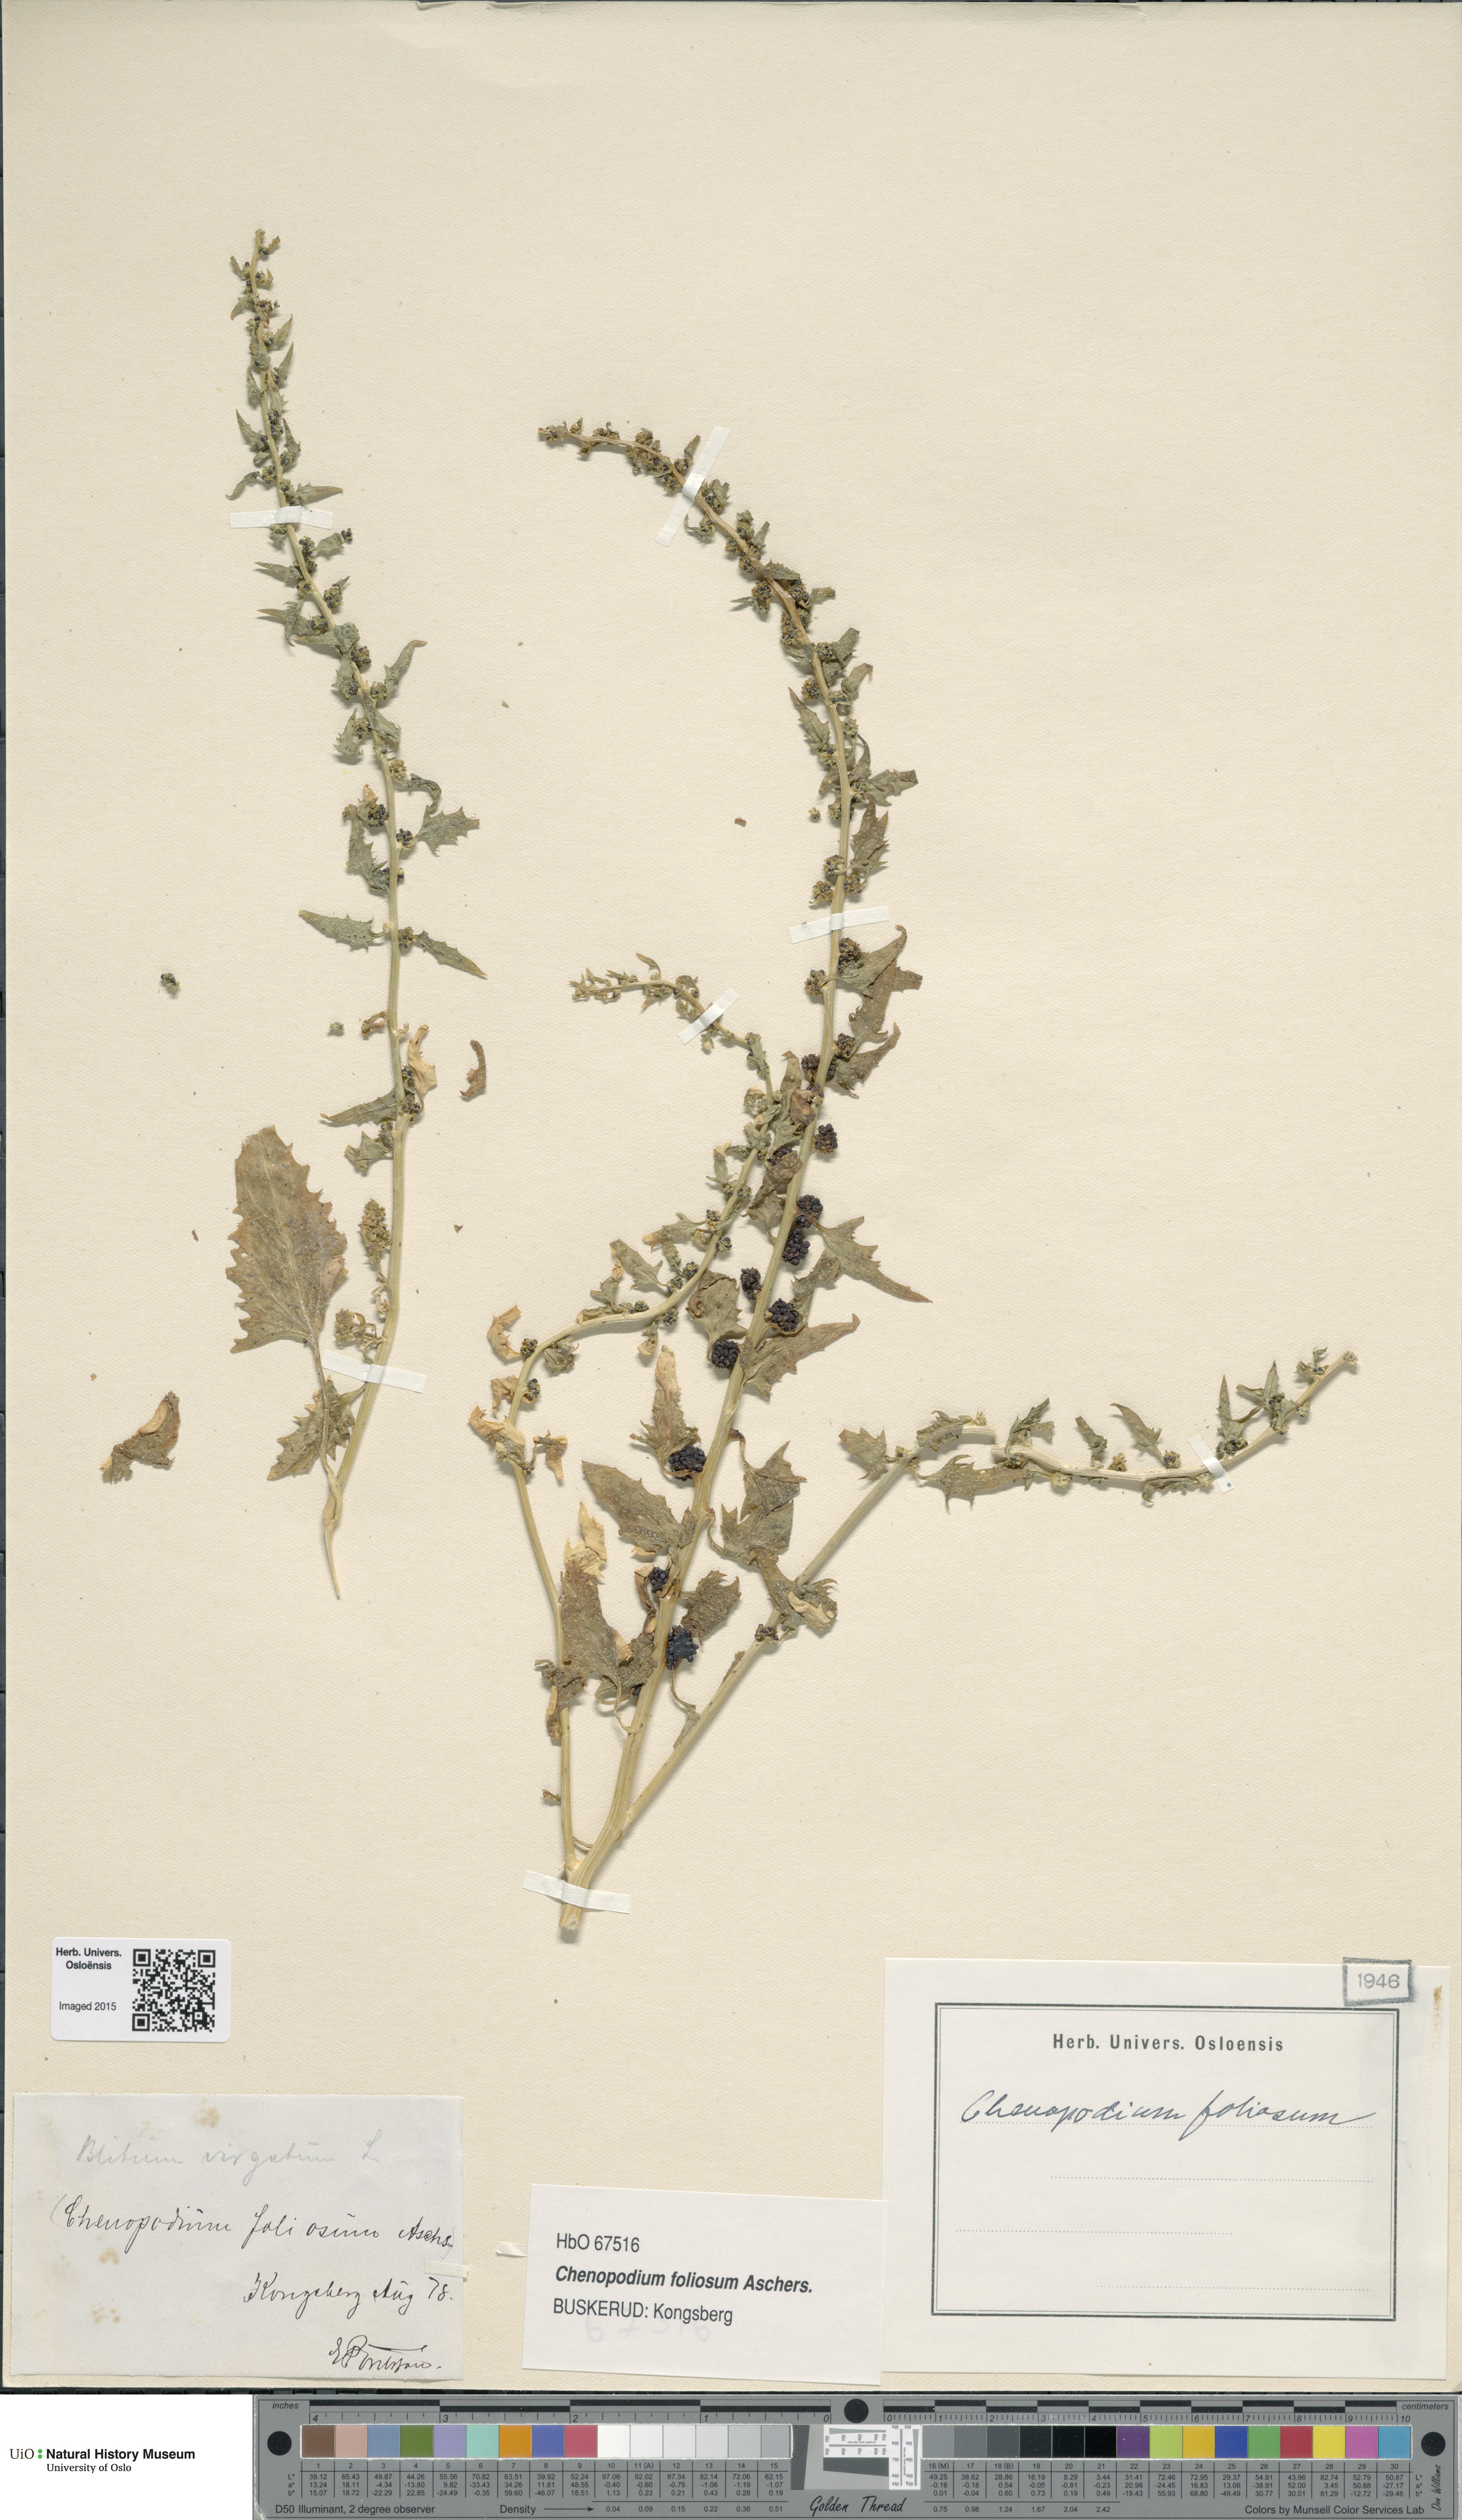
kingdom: Plantae
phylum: Tracheophyta
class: Magnoliopsida
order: Caryophyllales
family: Amaranthaceae
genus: Blitum
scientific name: Blitum virgatum
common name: Strawberry goosefoot
